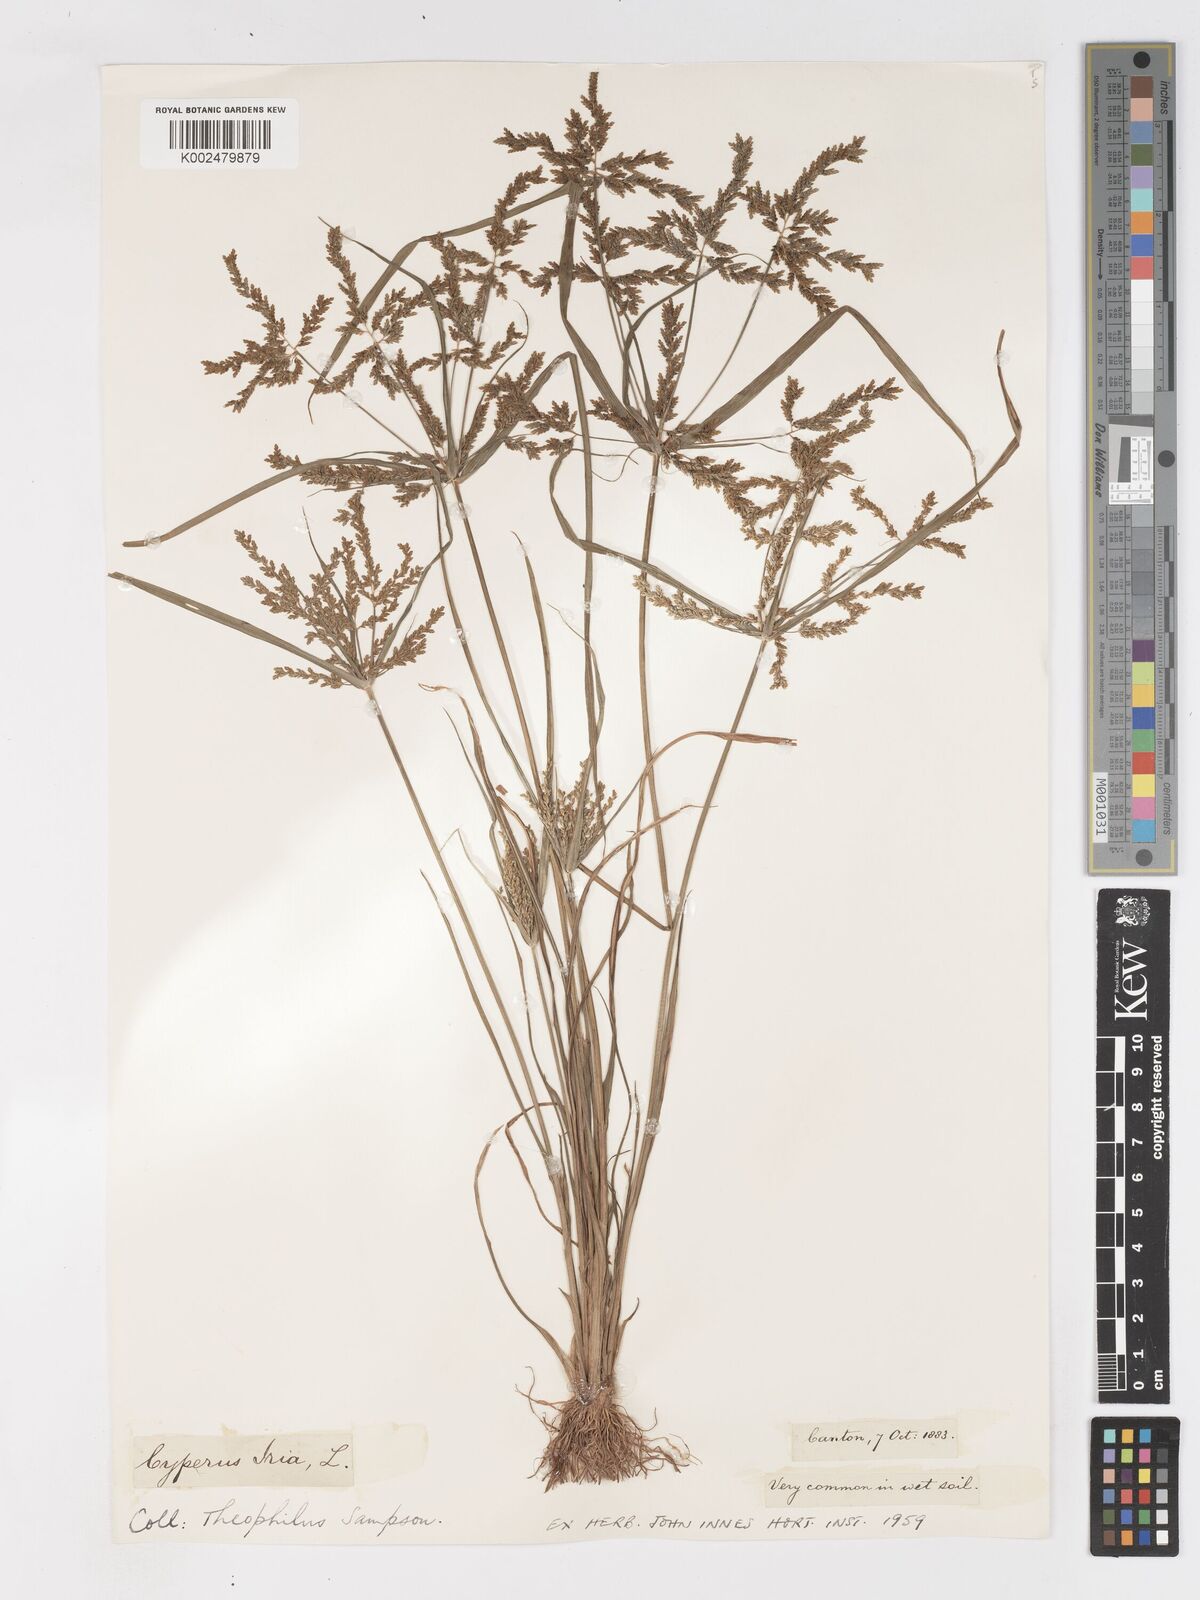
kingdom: Plantae
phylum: Tracheophyta
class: Liliopsida
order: Poales
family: Cyperaceae
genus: Cyperus
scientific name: Cyperus iria
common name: Ricefield flatsedge
